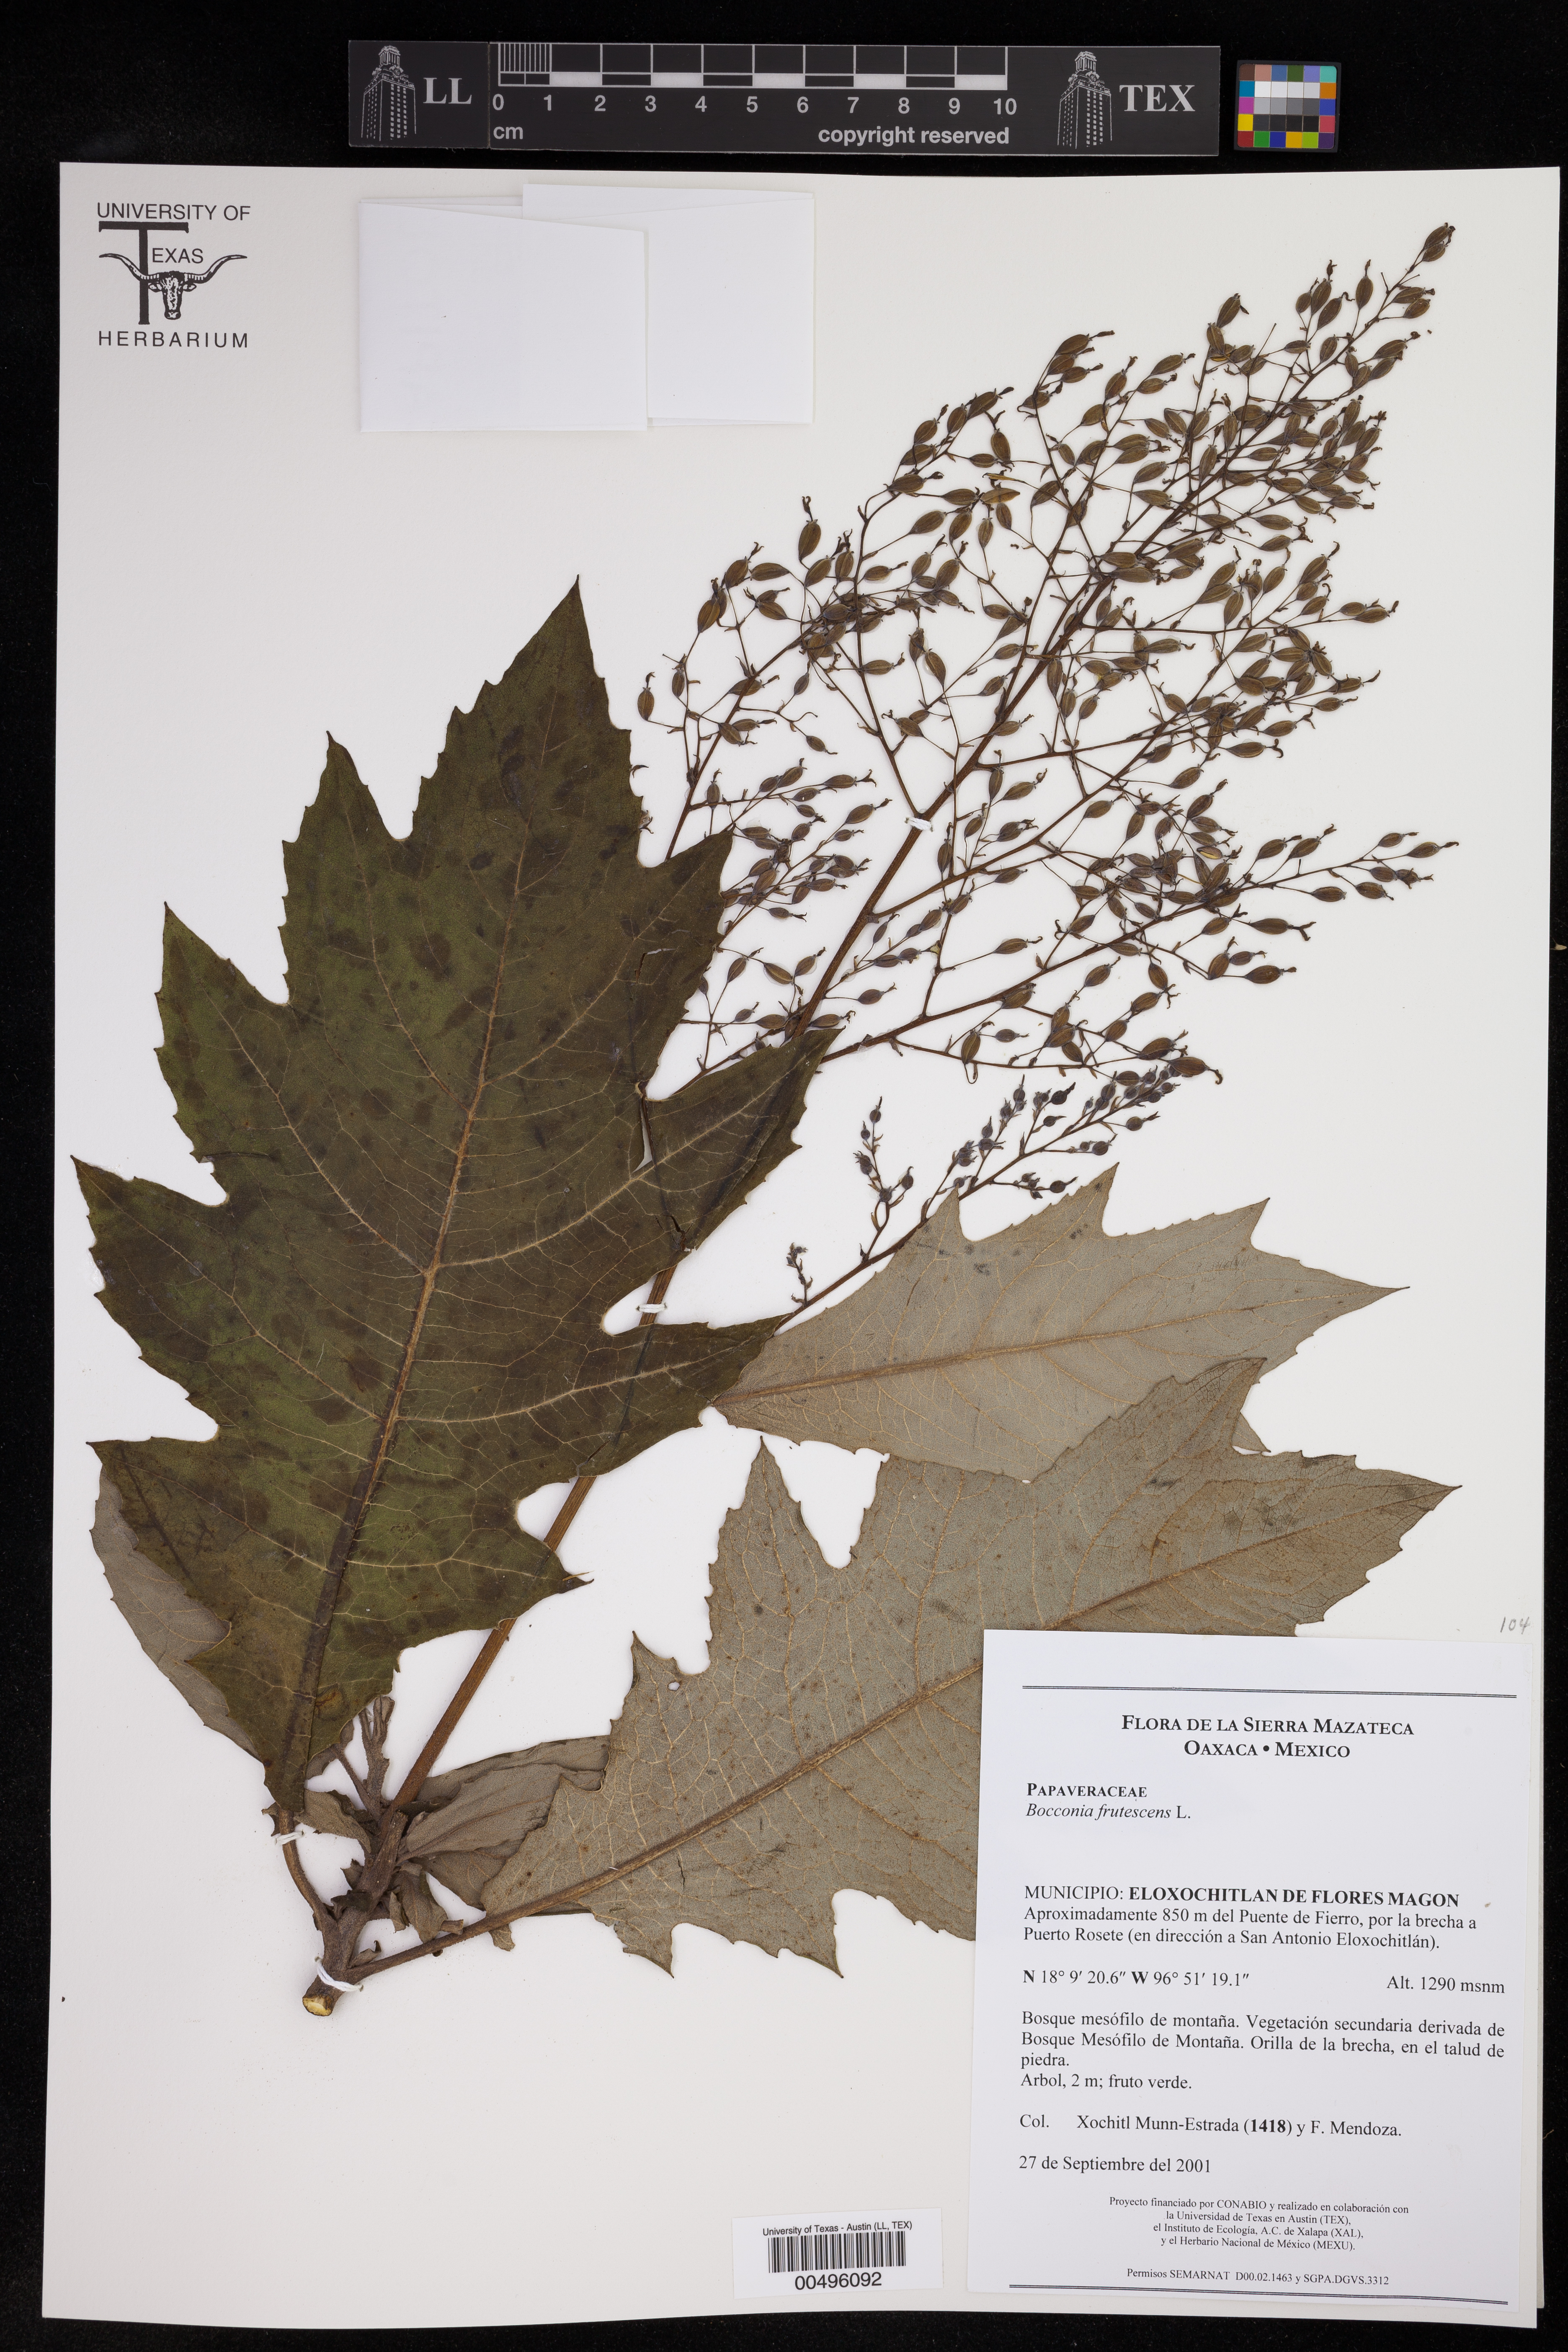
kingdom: Plantae
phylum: Tracheophyta
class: Magnoliopsida
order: Ranunculales
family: Papaveraceae
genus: Bocconia
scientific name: Bocconia frutescens
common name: Tree poppy
